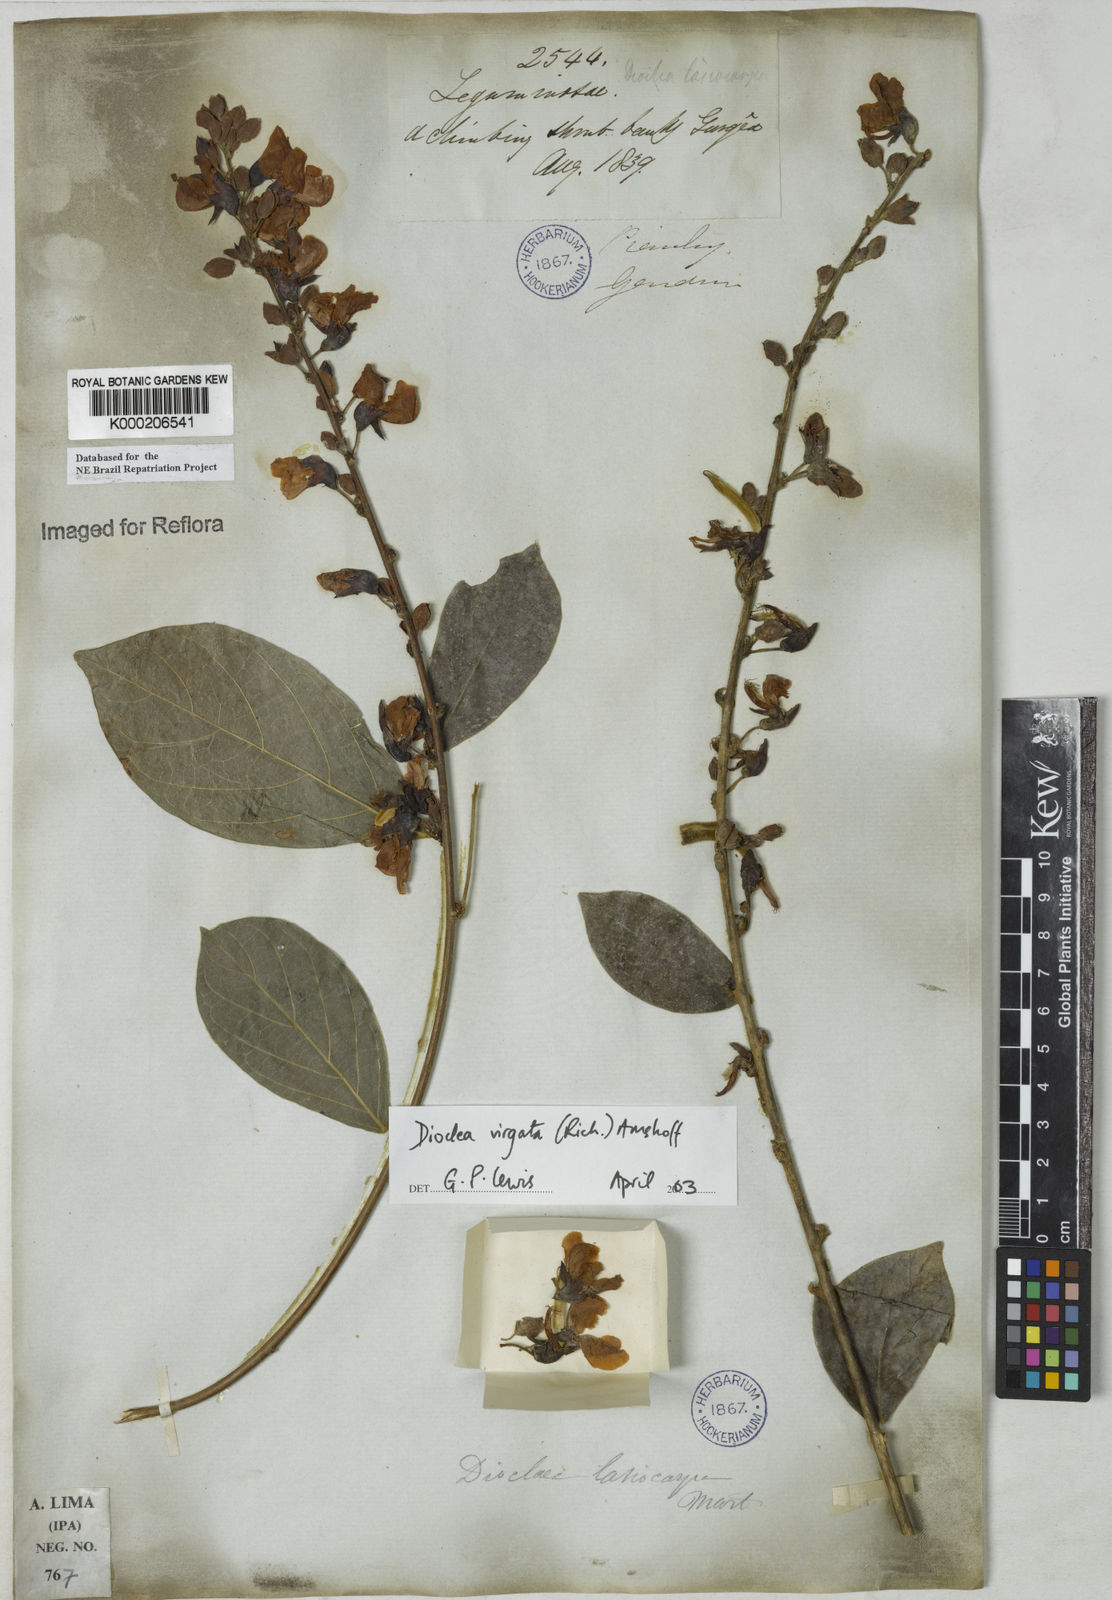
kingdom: Plantae
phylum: Tracheophyta
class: Magnoliopsida
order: Fabales
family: Fabaceae
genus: Dioclea
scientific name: Dioclea virgata
